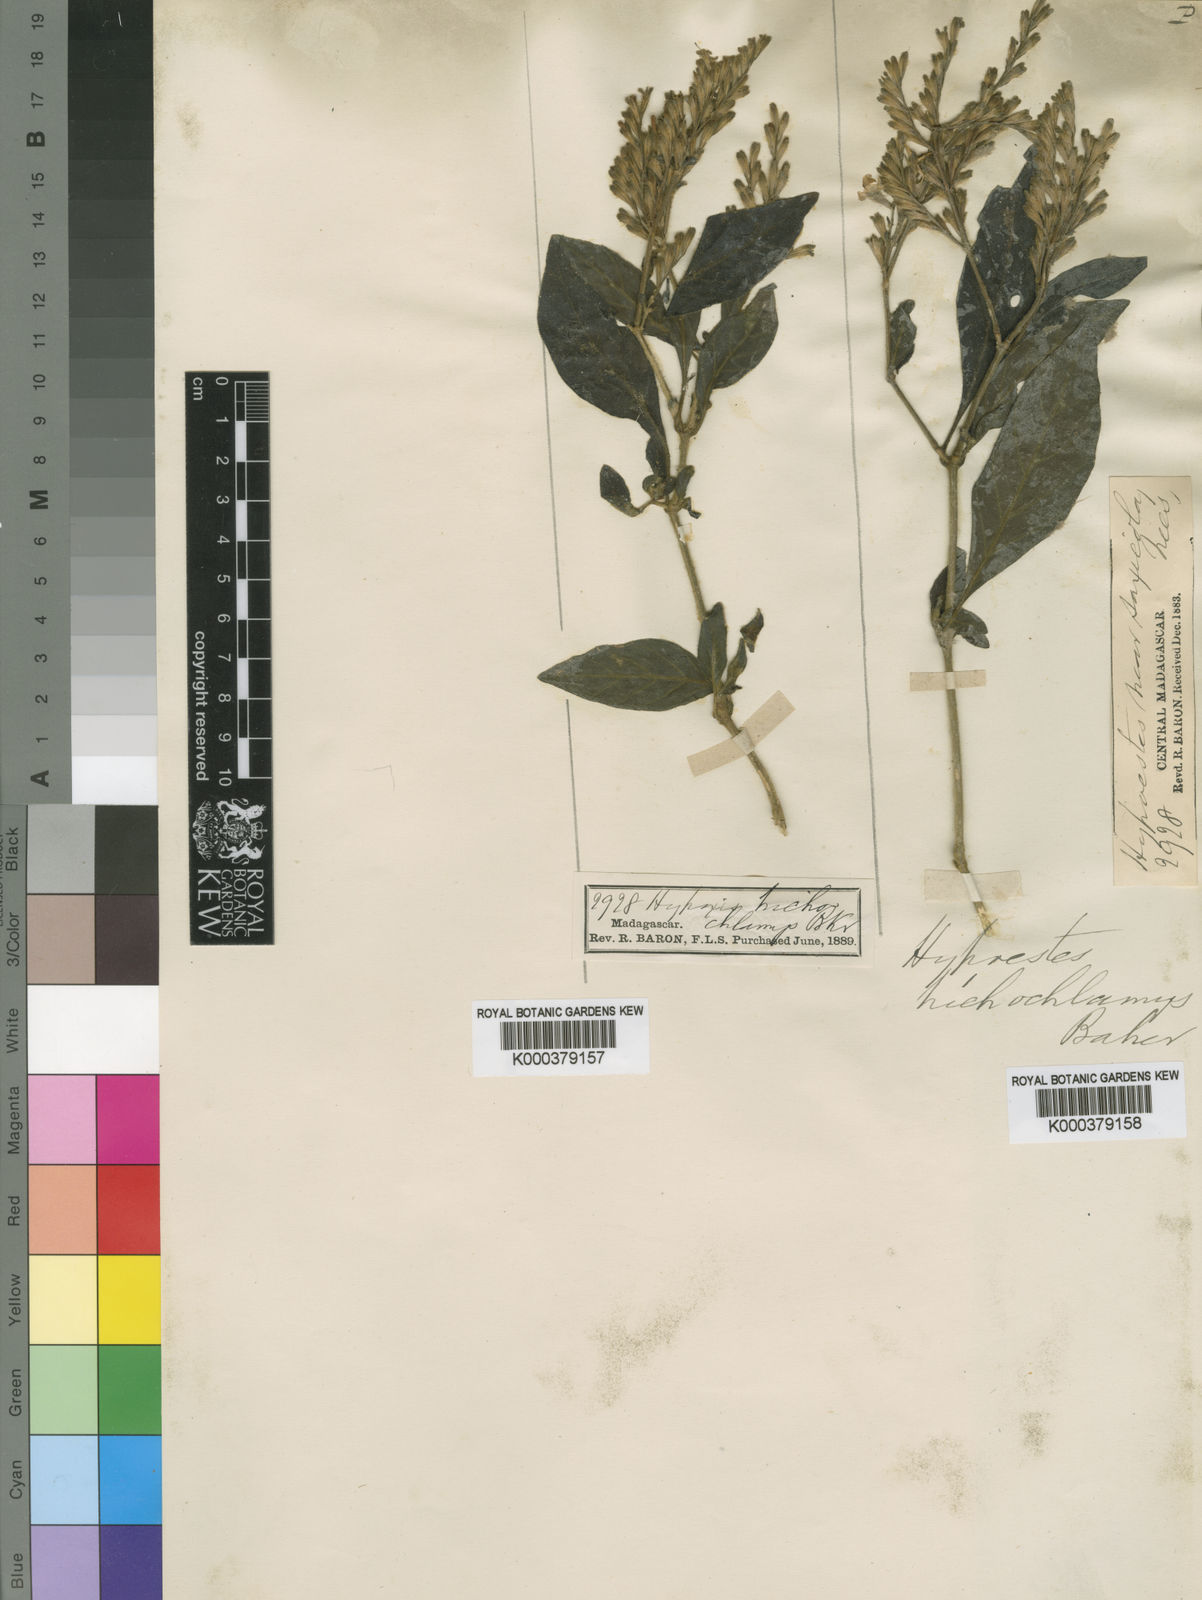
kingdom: Plantae
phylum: Tracheophyta
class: Magnoliopsida
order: Lamiales
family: Acanthaceae
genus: Hypoestes
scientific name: Hypoestes trichochlamys
